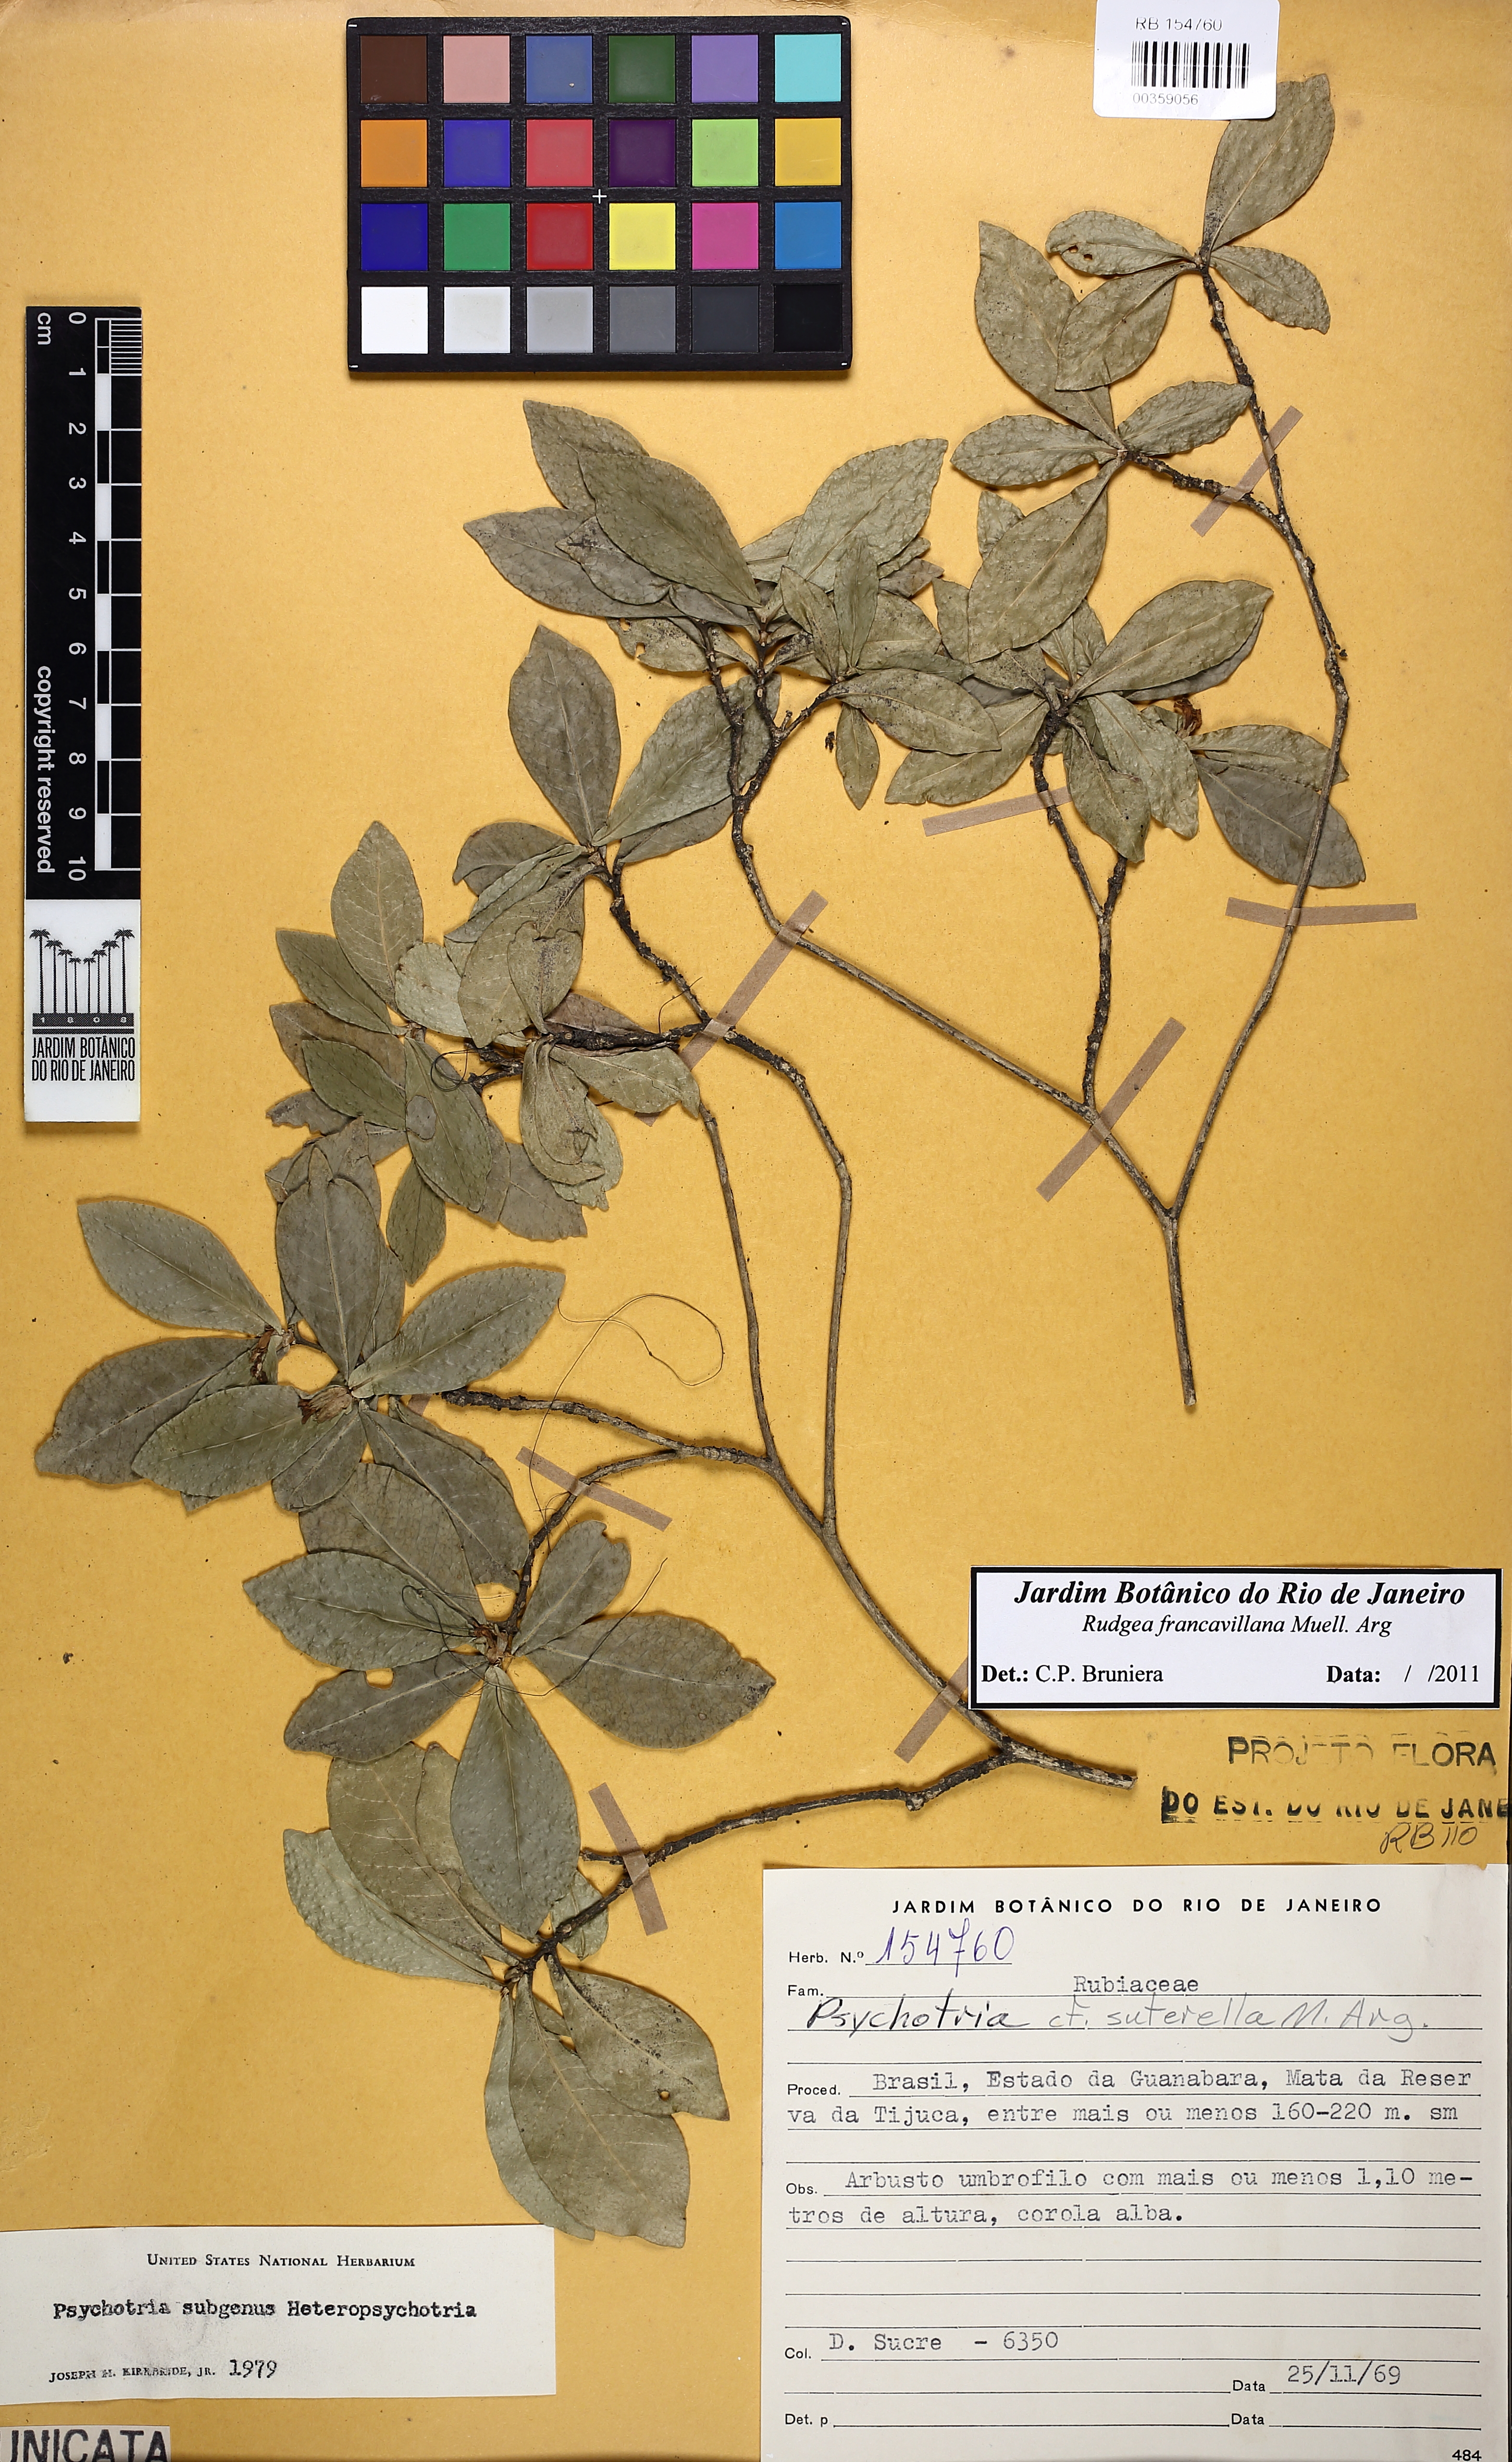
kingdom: Plantae
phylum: Tracheophyta
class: Magnoliopsida
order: Gentianales
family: Rubiaceae
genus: Rudgea
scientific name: Rudgea francavillana
